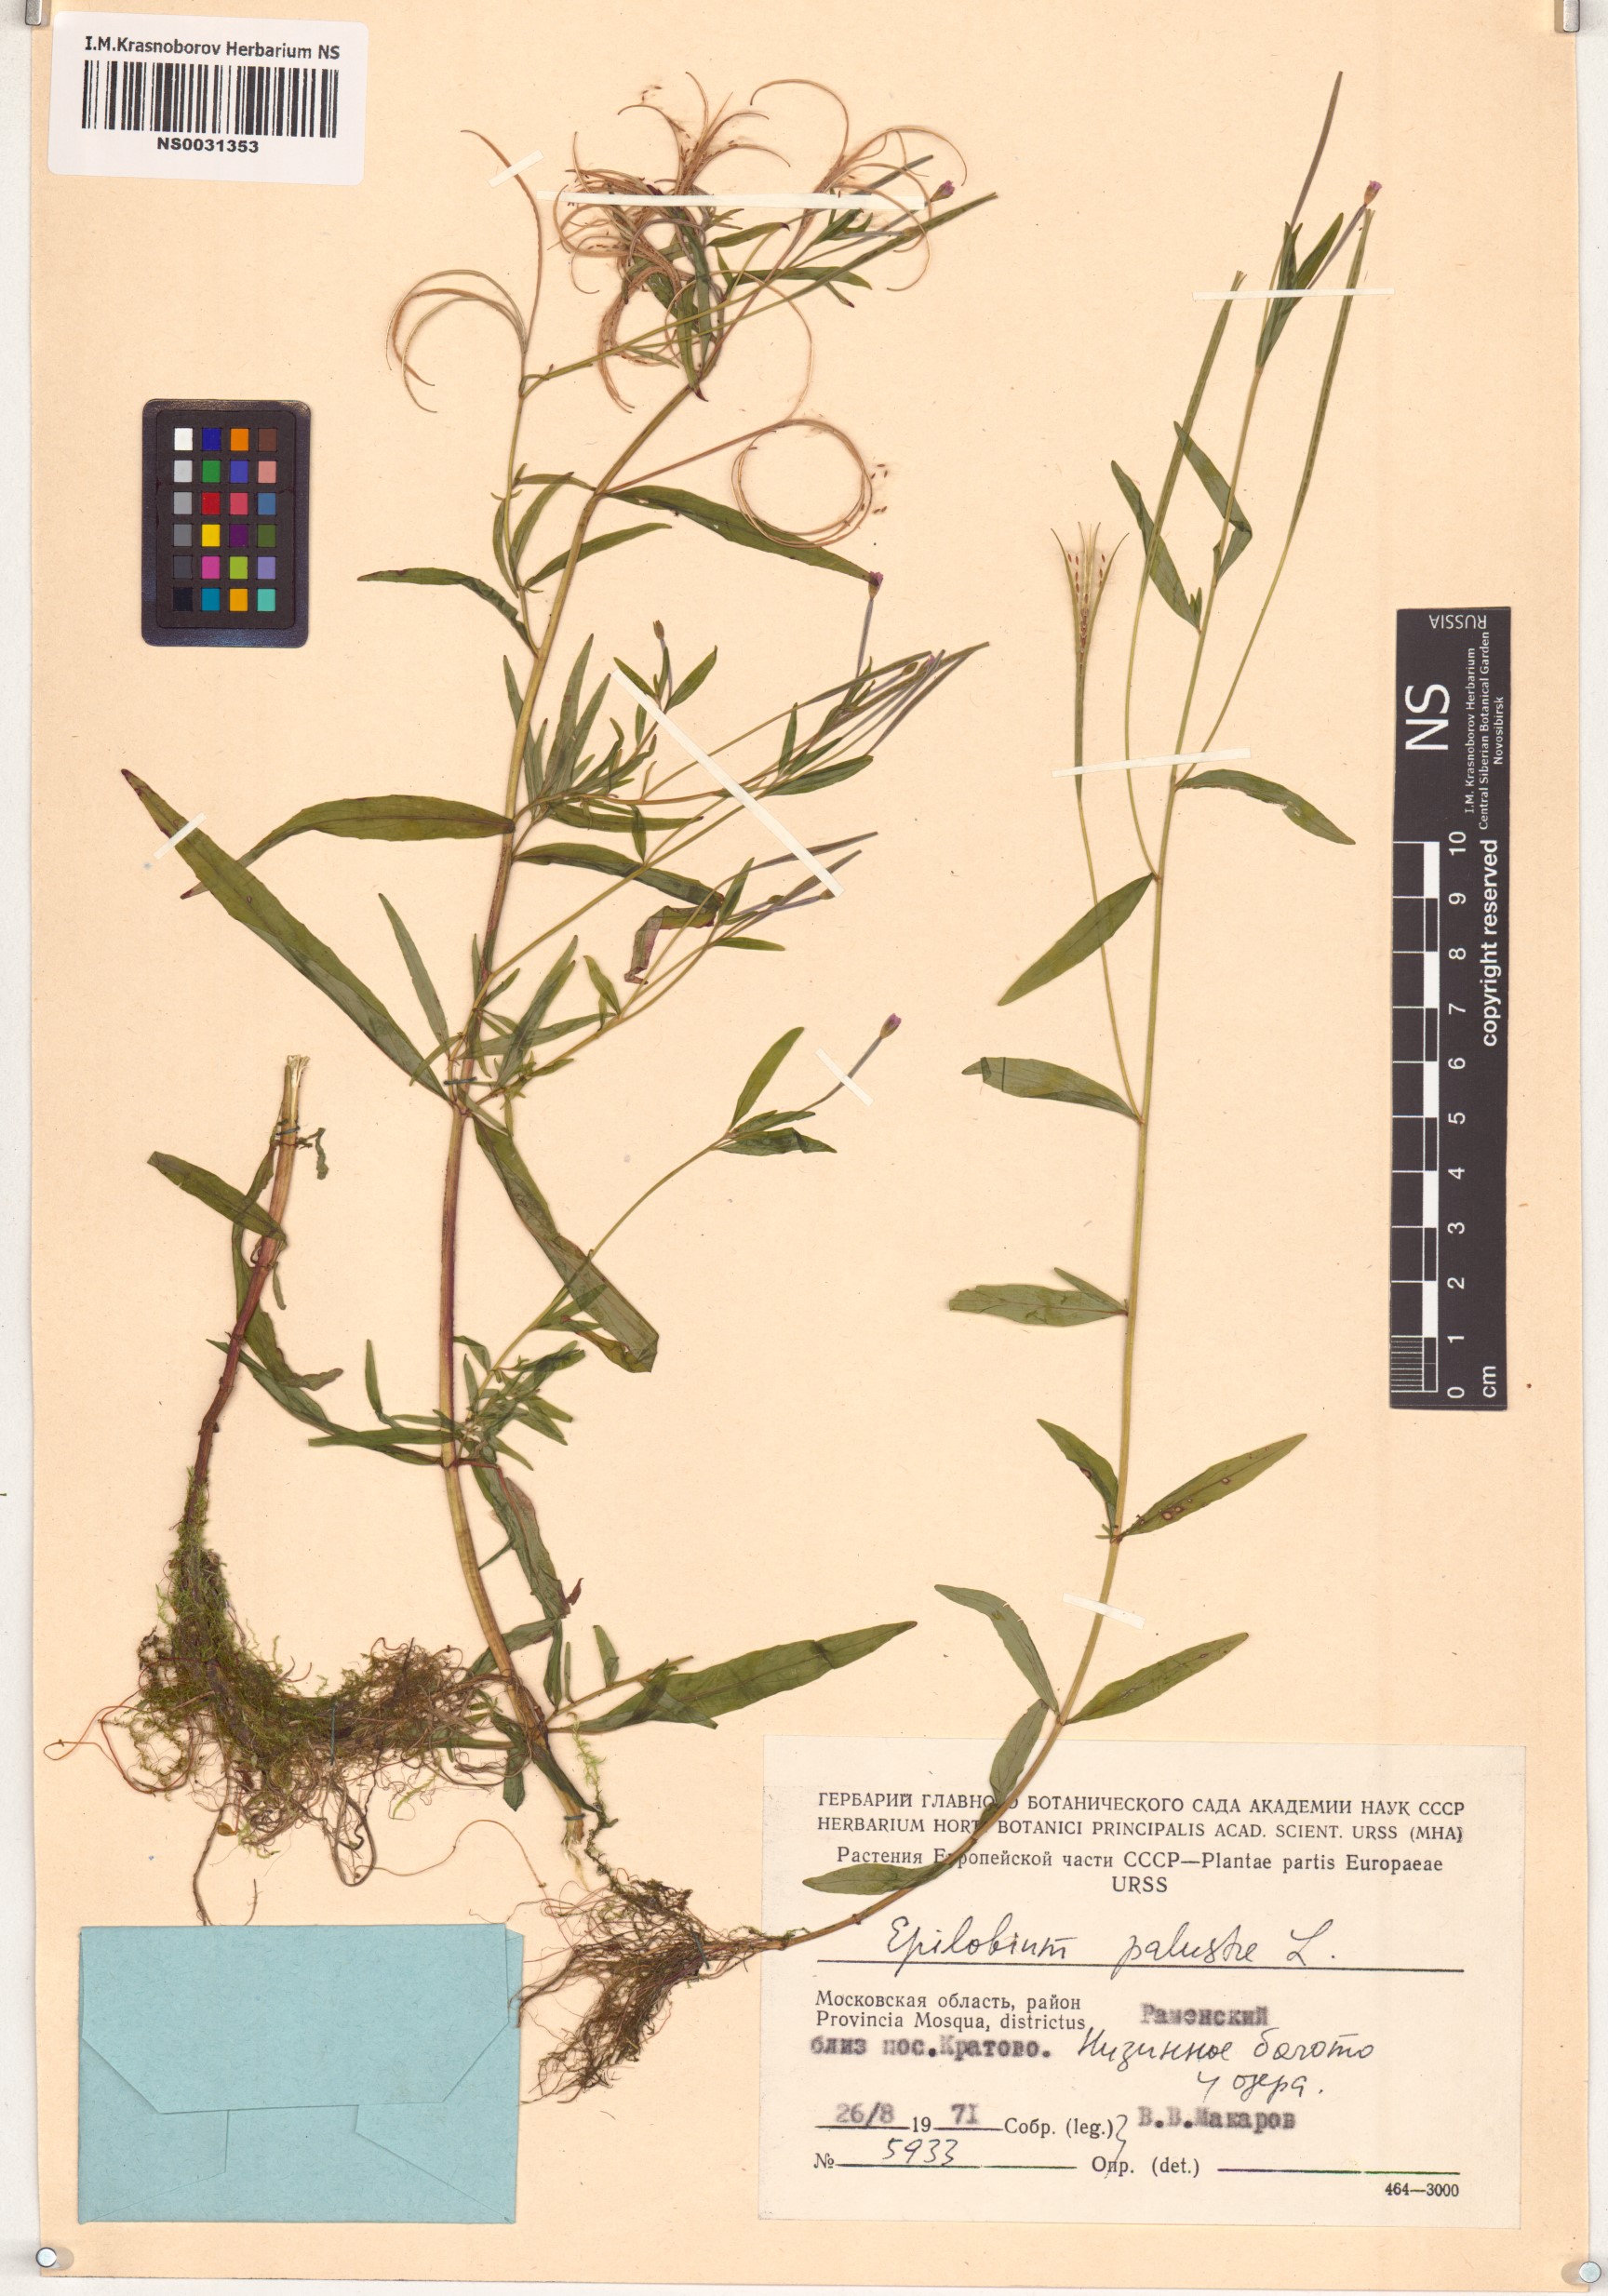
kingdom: Plantae
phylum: Tracheophyta
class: Magnoliopsida
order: Myrtales
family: Onagraceae
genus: Epilobium
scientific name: Epilobium palustre
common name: Marsh willowherb
